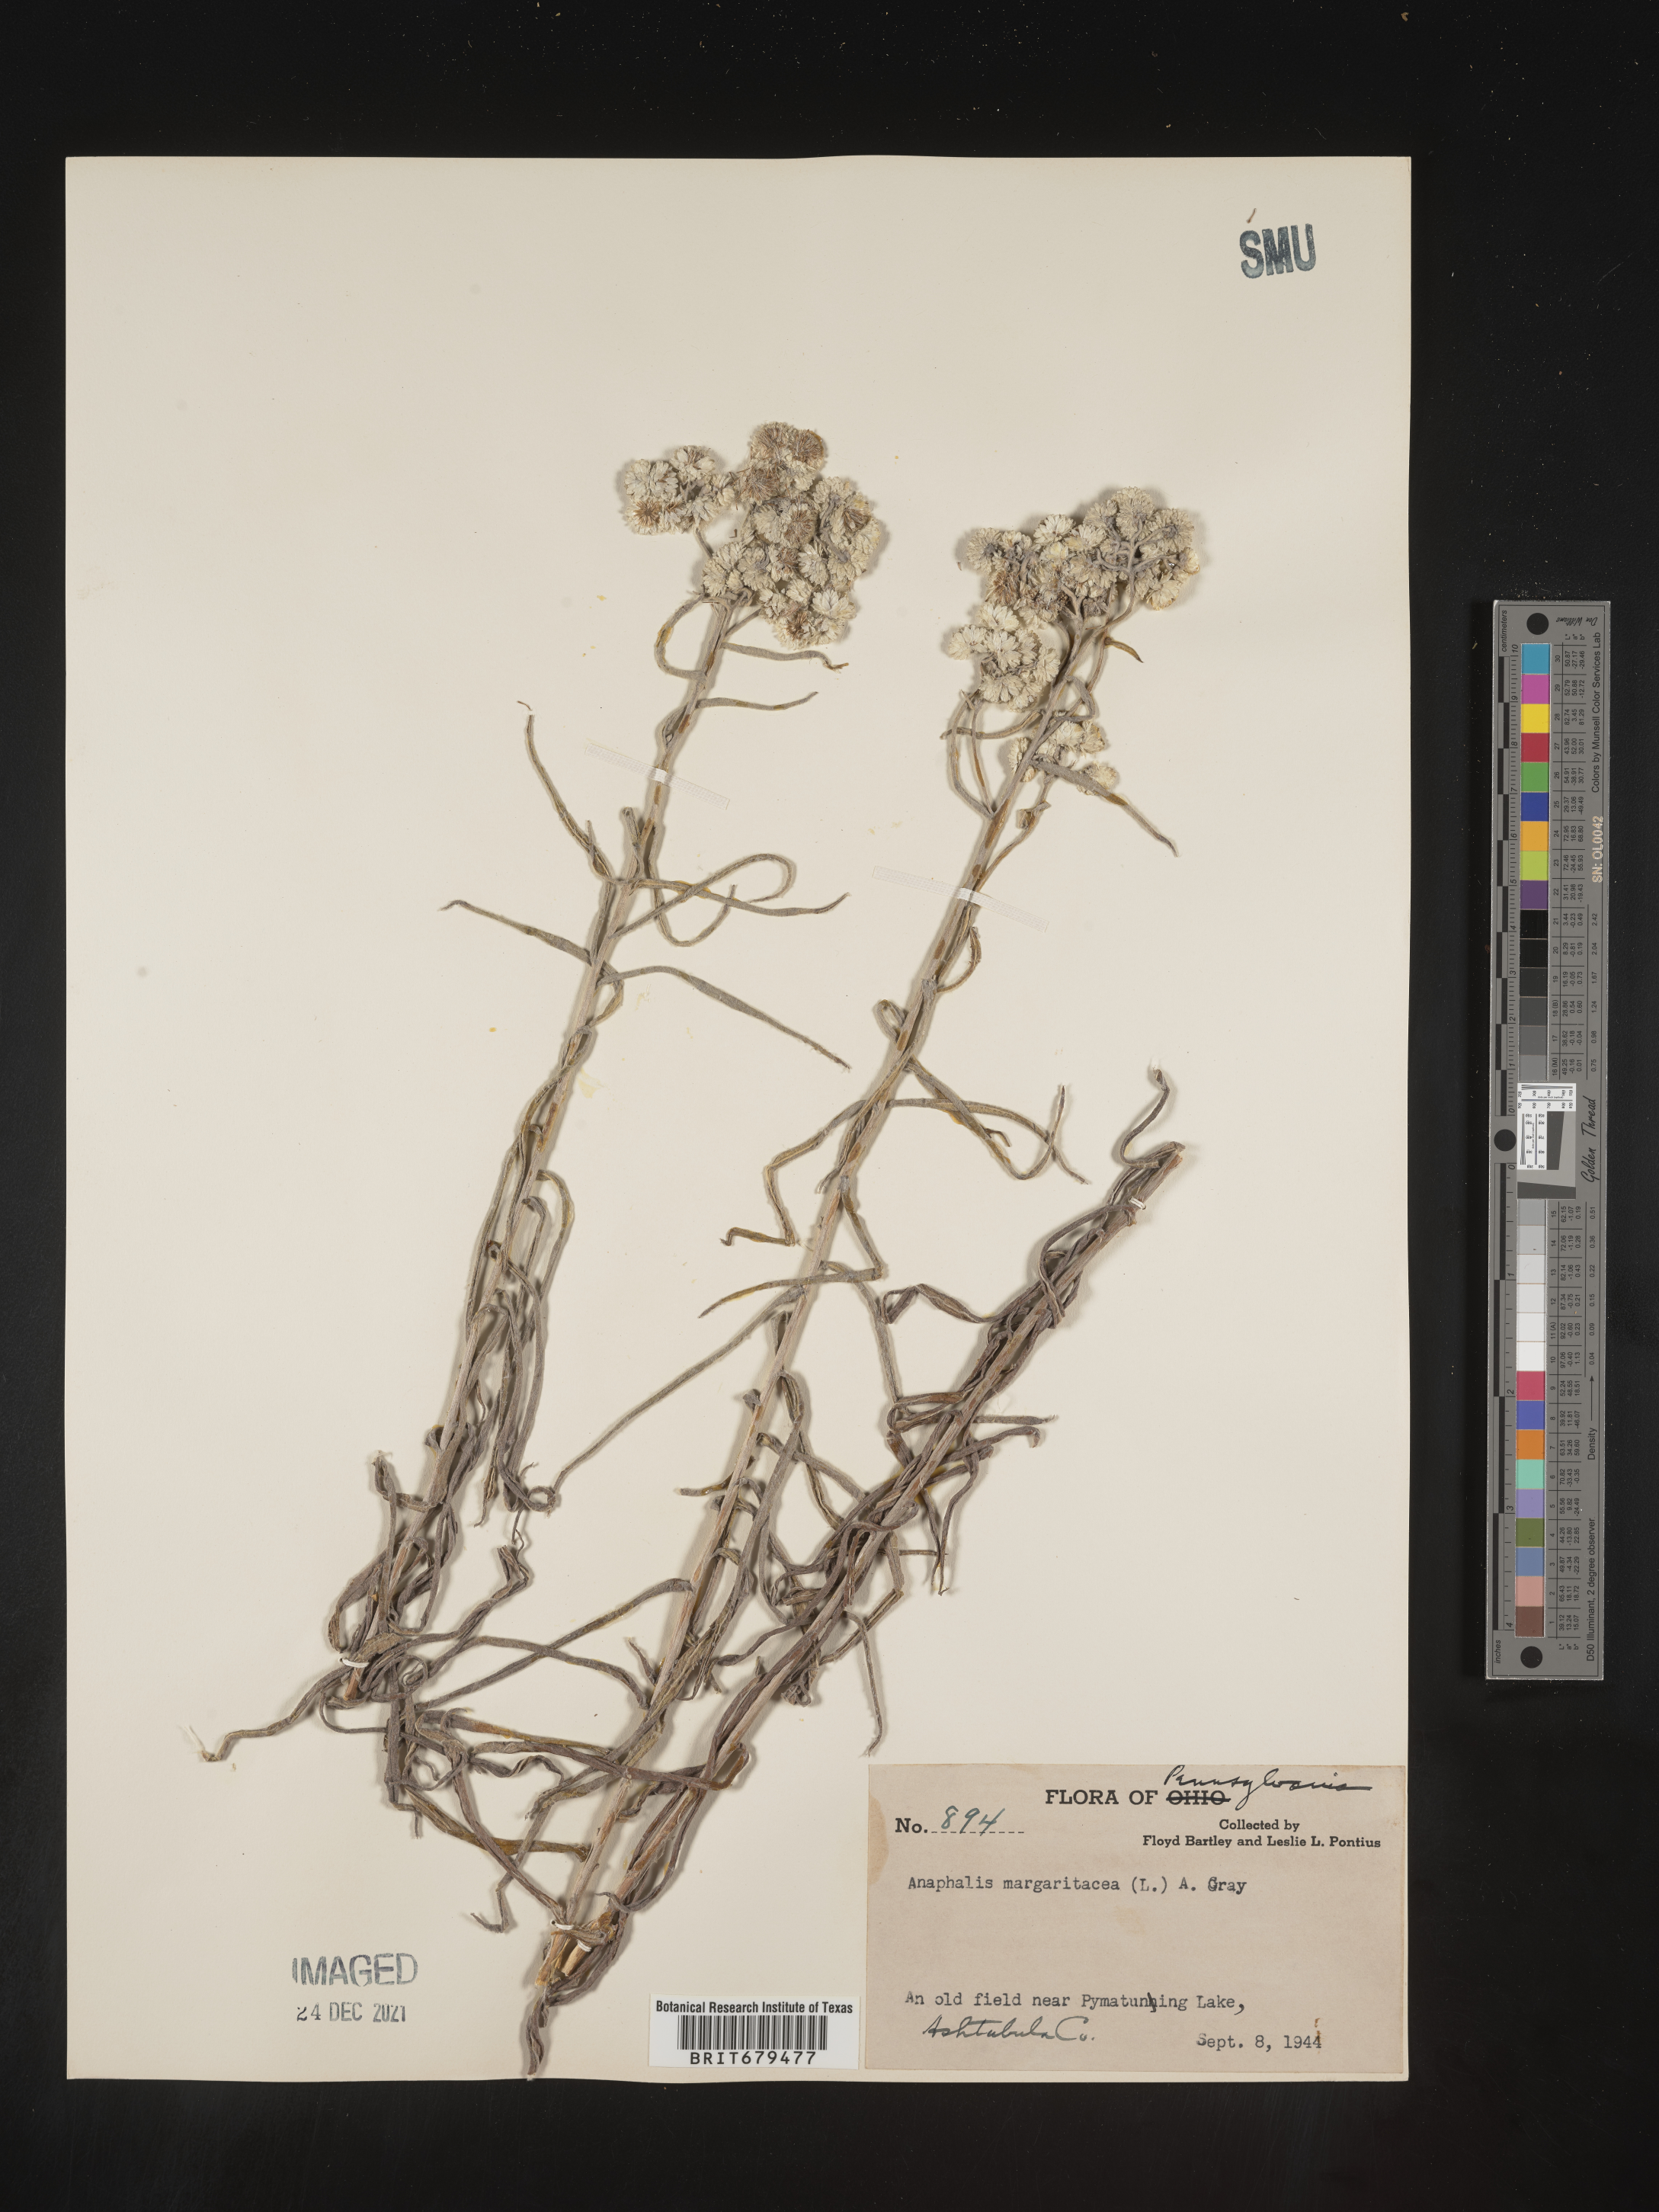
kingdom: Plantae
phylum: Tracheophyta
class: Magnoliopsida
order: Asterales
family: Asteraceae
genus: Anaphalis
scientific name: Anaphalis margaritacea
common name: Pearly everlasting
